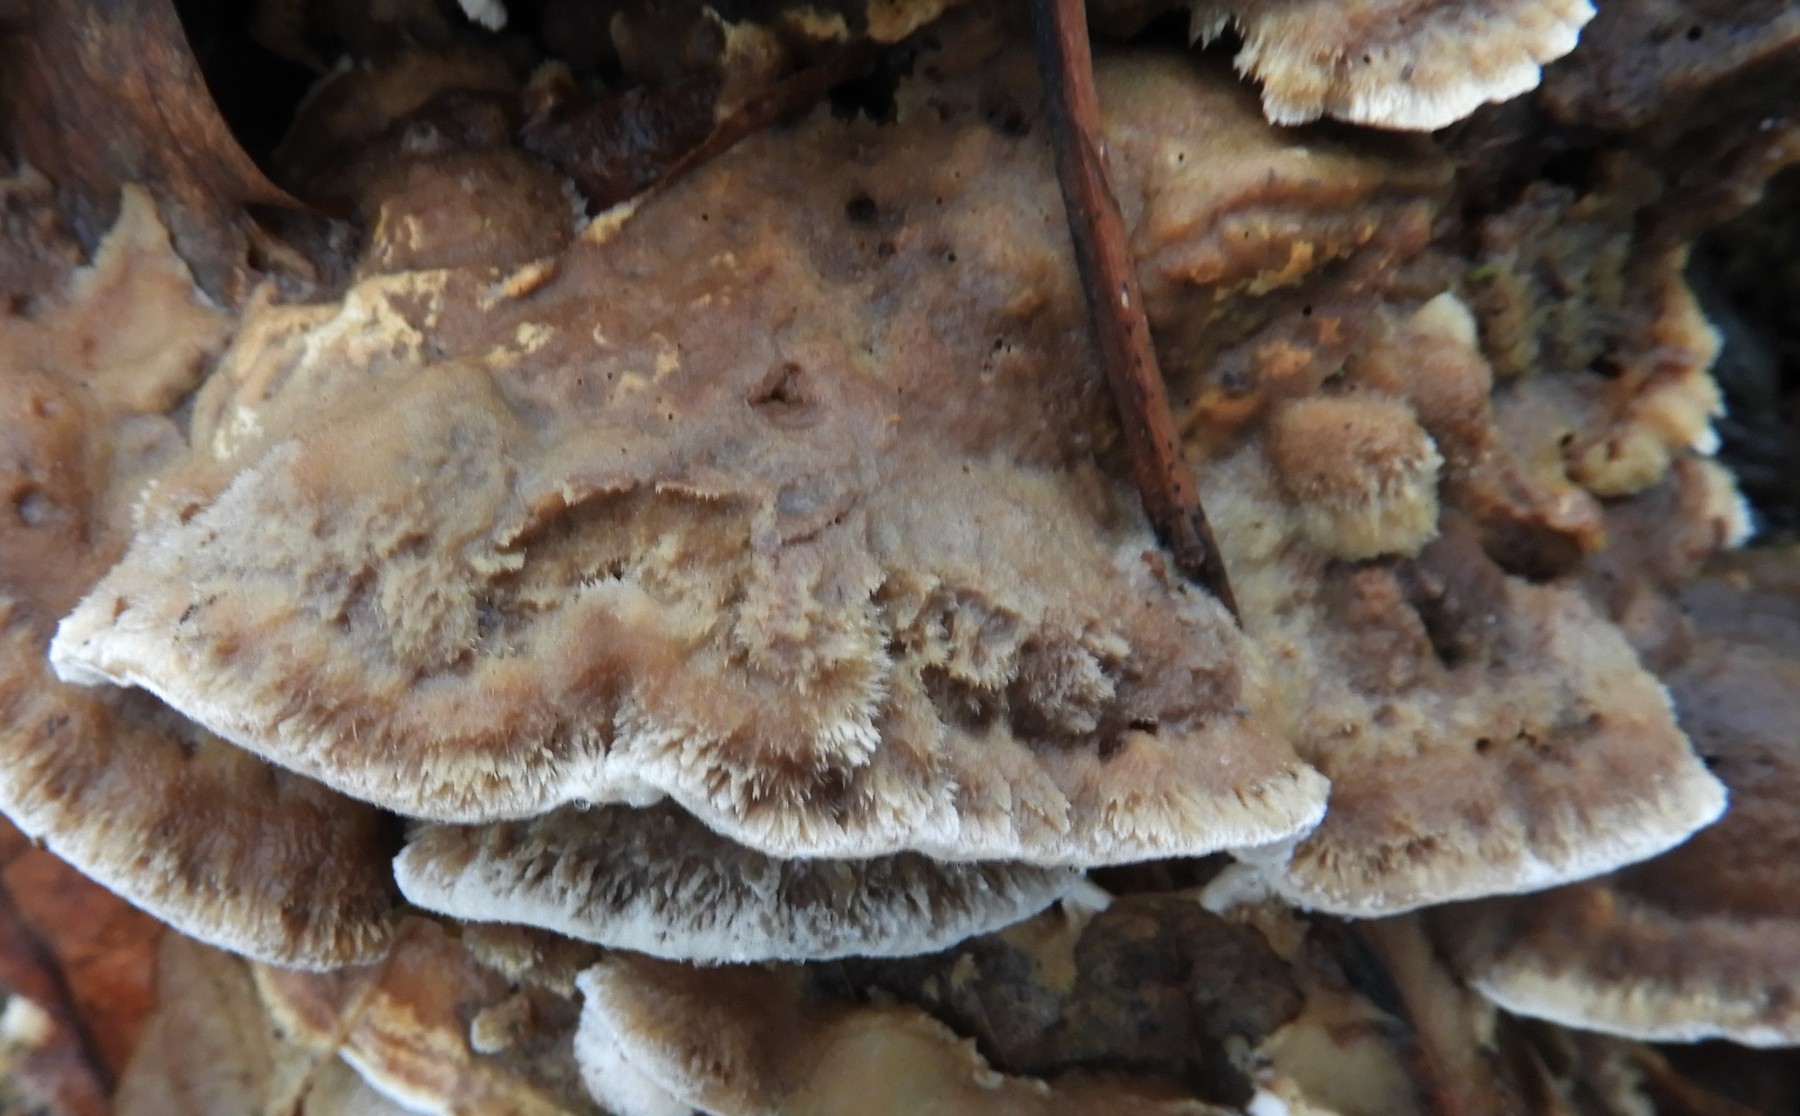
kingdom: Fungi
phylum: Basidiomycota
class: Agaricomycetes
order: Polyporales
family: Phanerochaetaceae
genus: Bjerkandera
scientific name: Bjerkandera fumosa
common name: grågul sodporesvamp
